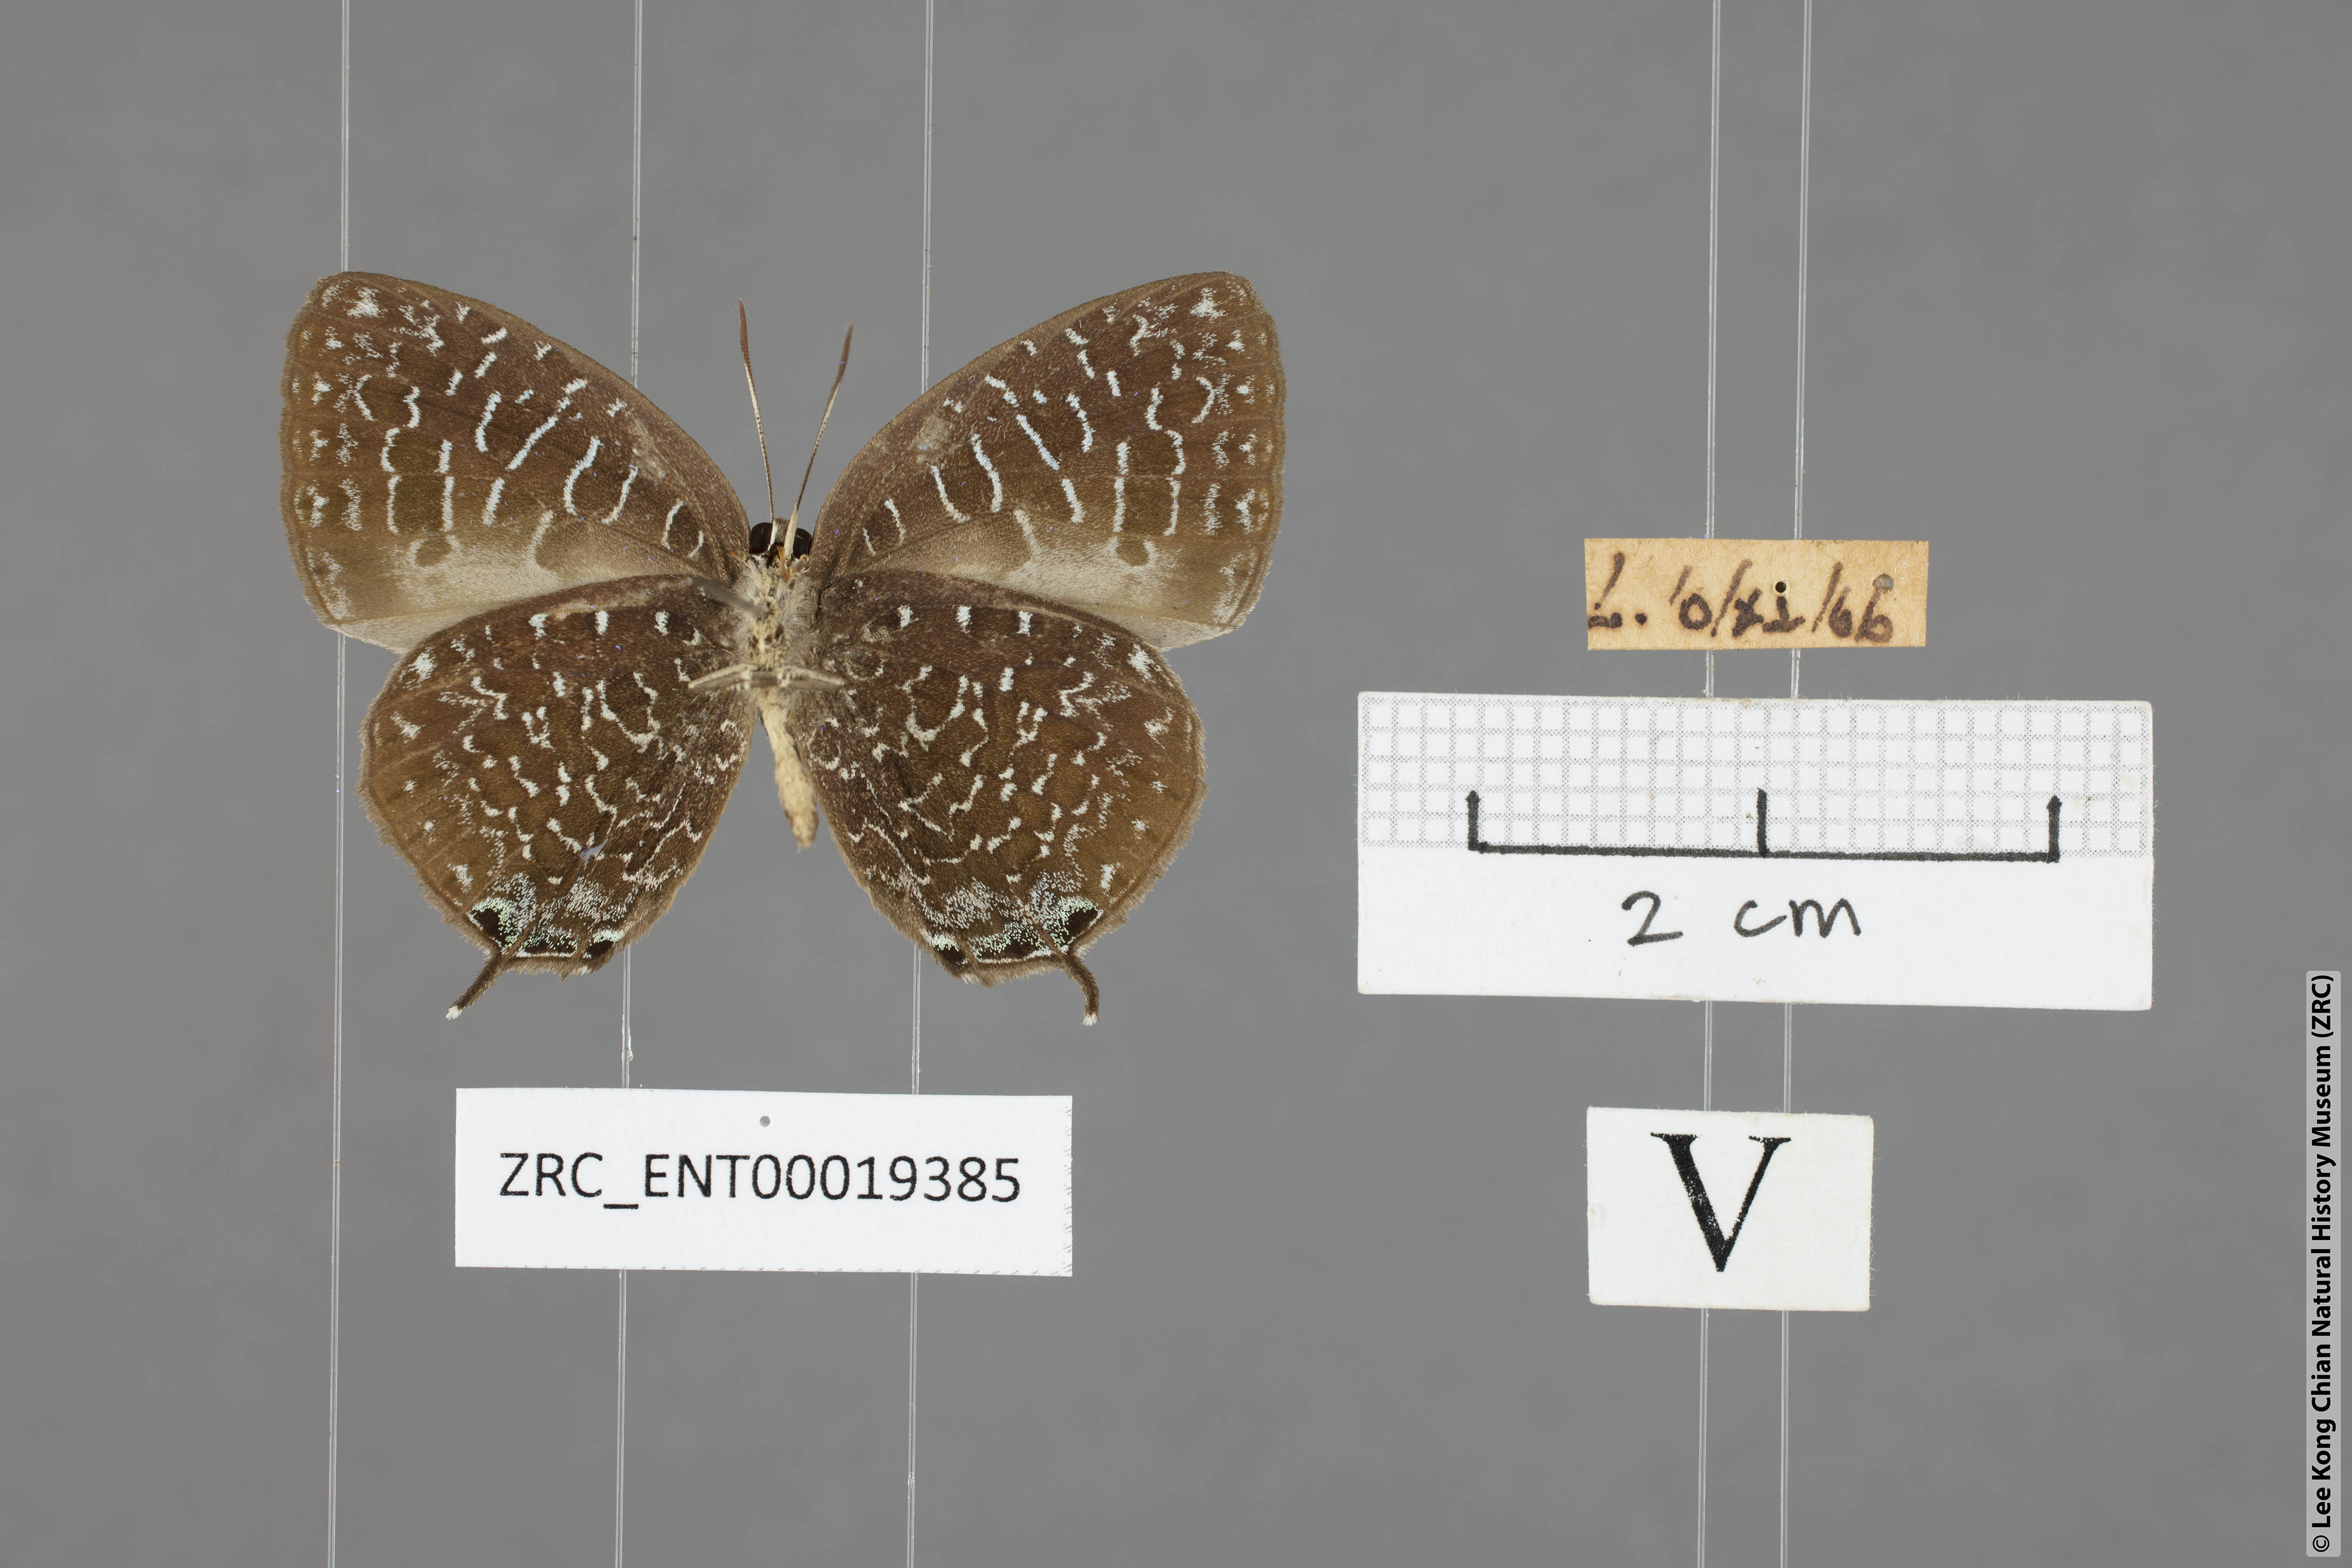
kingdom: Animalia
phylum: Arthropoda
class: Insecta
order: Lepidoptera
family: Lycaenidae
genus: Arhopala
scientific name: Arhopala democritus
